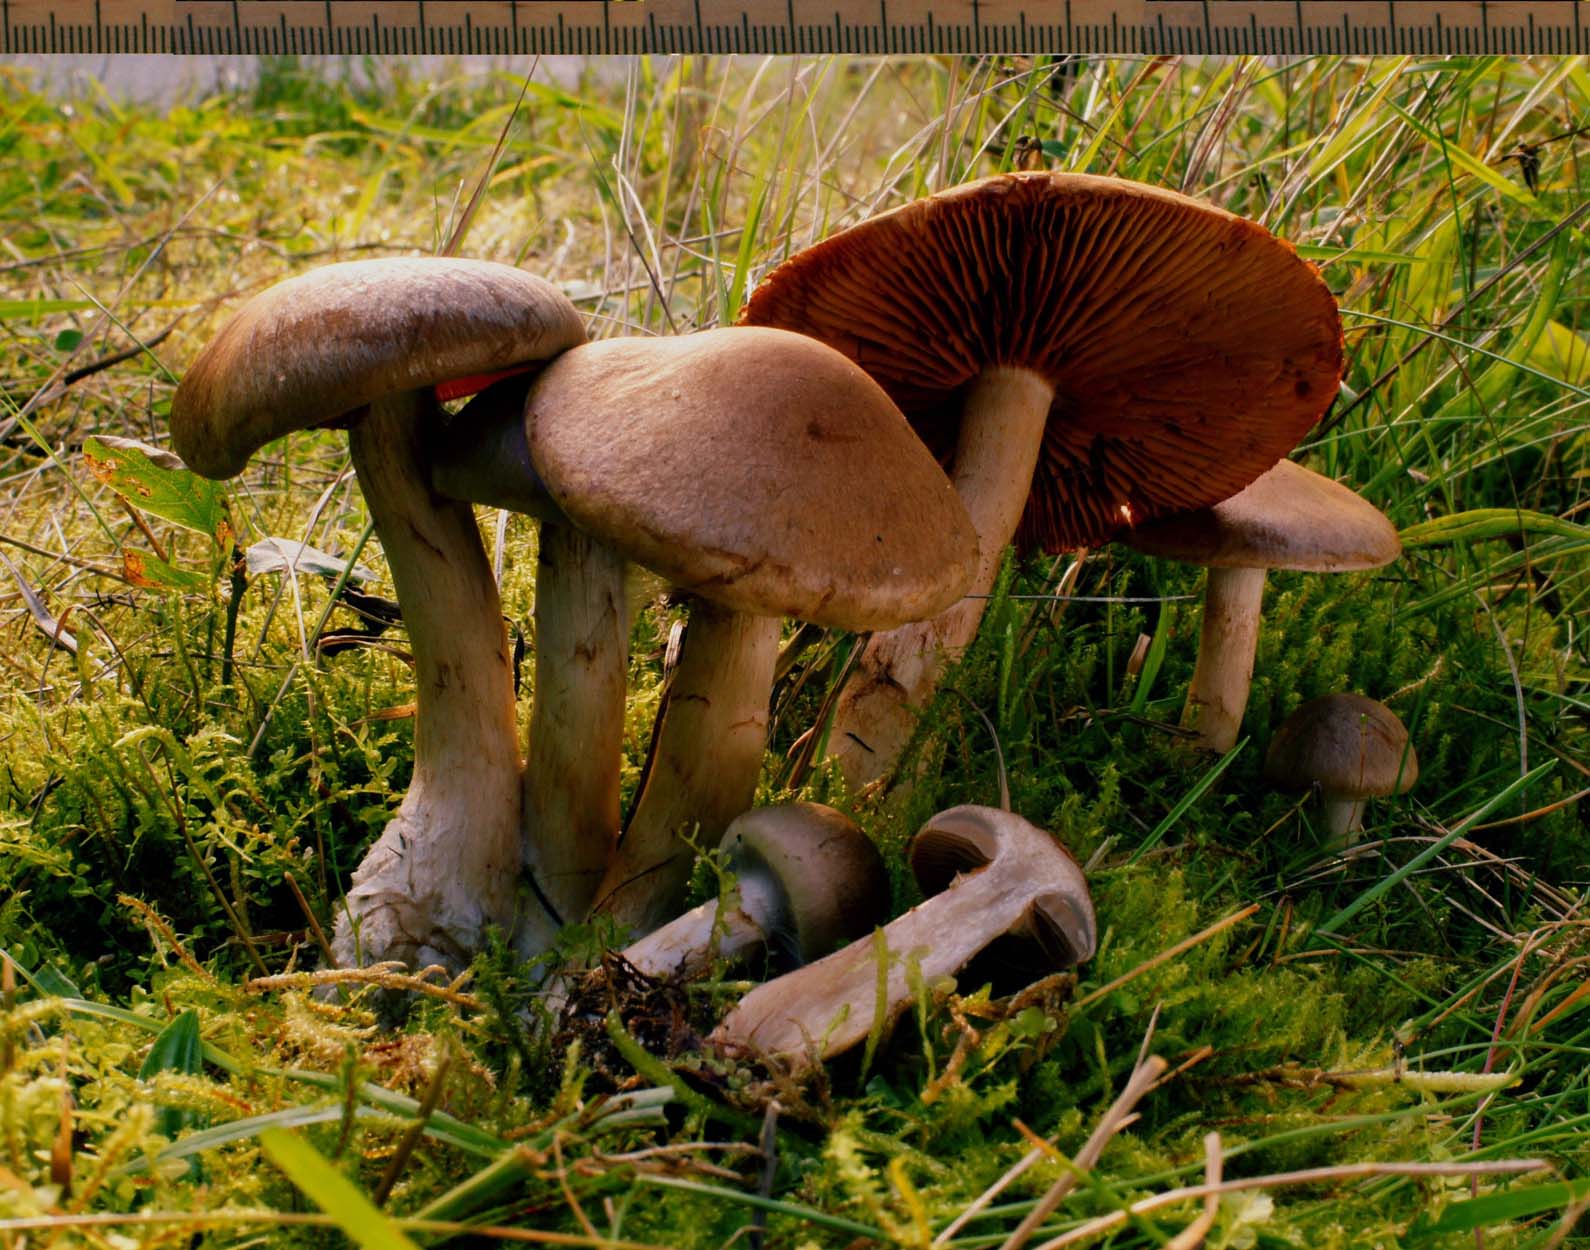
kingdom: Fungi
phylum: Basidiomycota
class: Agaricomycetes
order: Agaricales
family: Cortinariaceae
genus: Cortinarius
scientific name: Cortinarius caninus
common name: gran-slørhat
